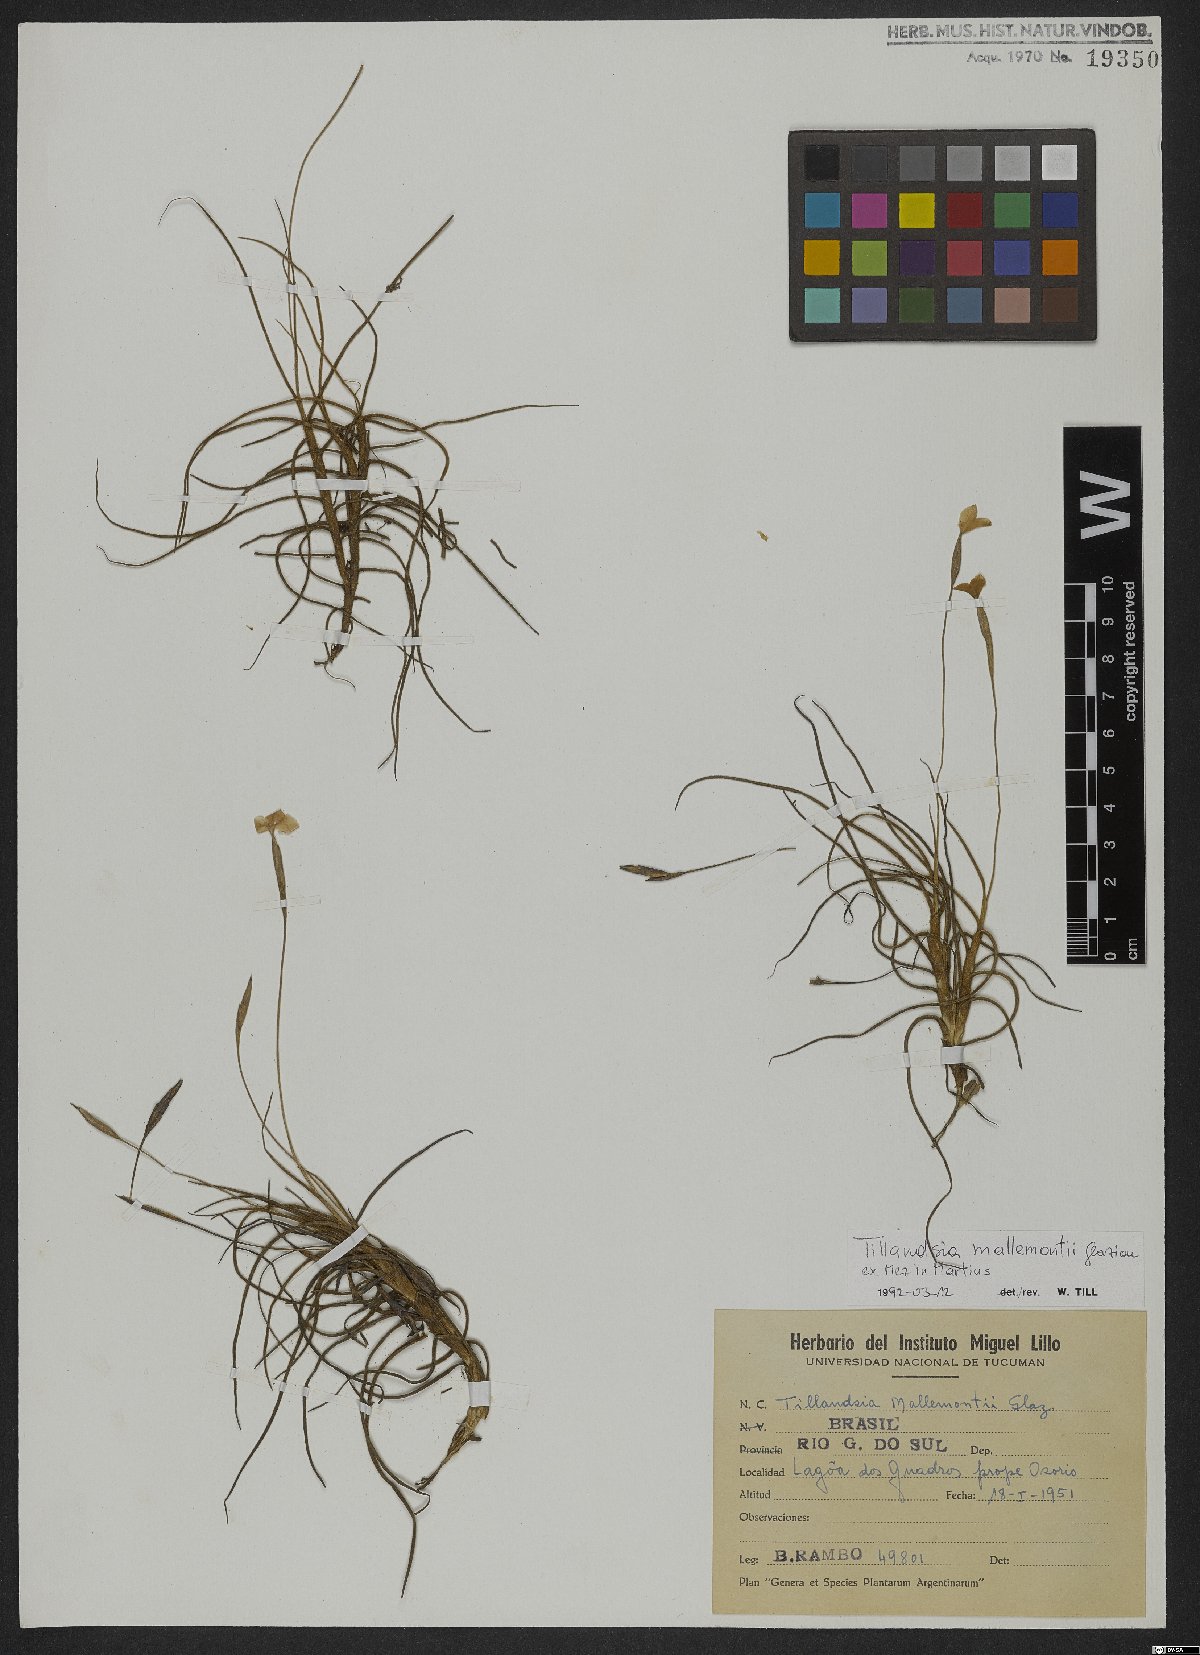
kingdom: Plantae
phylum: Tracheophyta
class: Liliopsida
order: Poales
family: Bromeliaceae
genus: Tillandsia
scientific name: Tillandsia mallemontii
